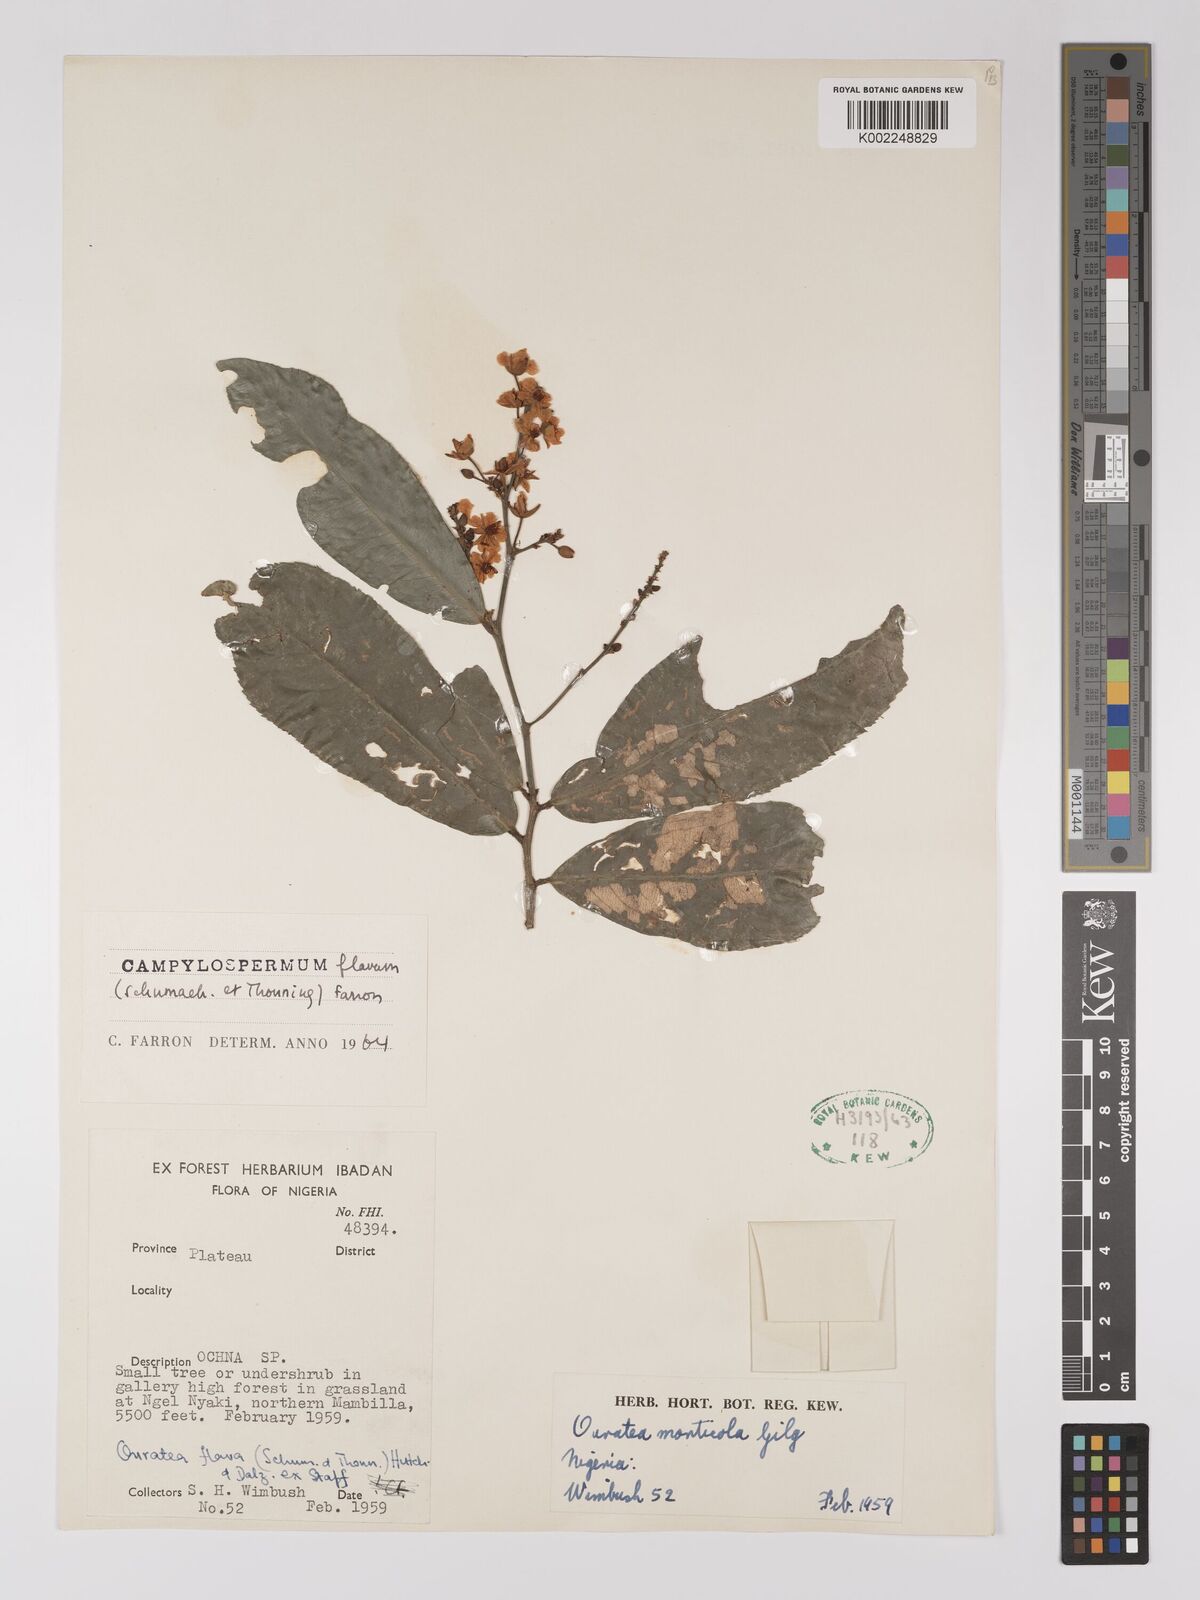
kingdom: Plantae
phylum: Tracheophyta
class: Magnoliopsida
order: Malpighiales
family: Ochnaceae
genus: Campylospermum
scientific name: Campylospermum flavum
